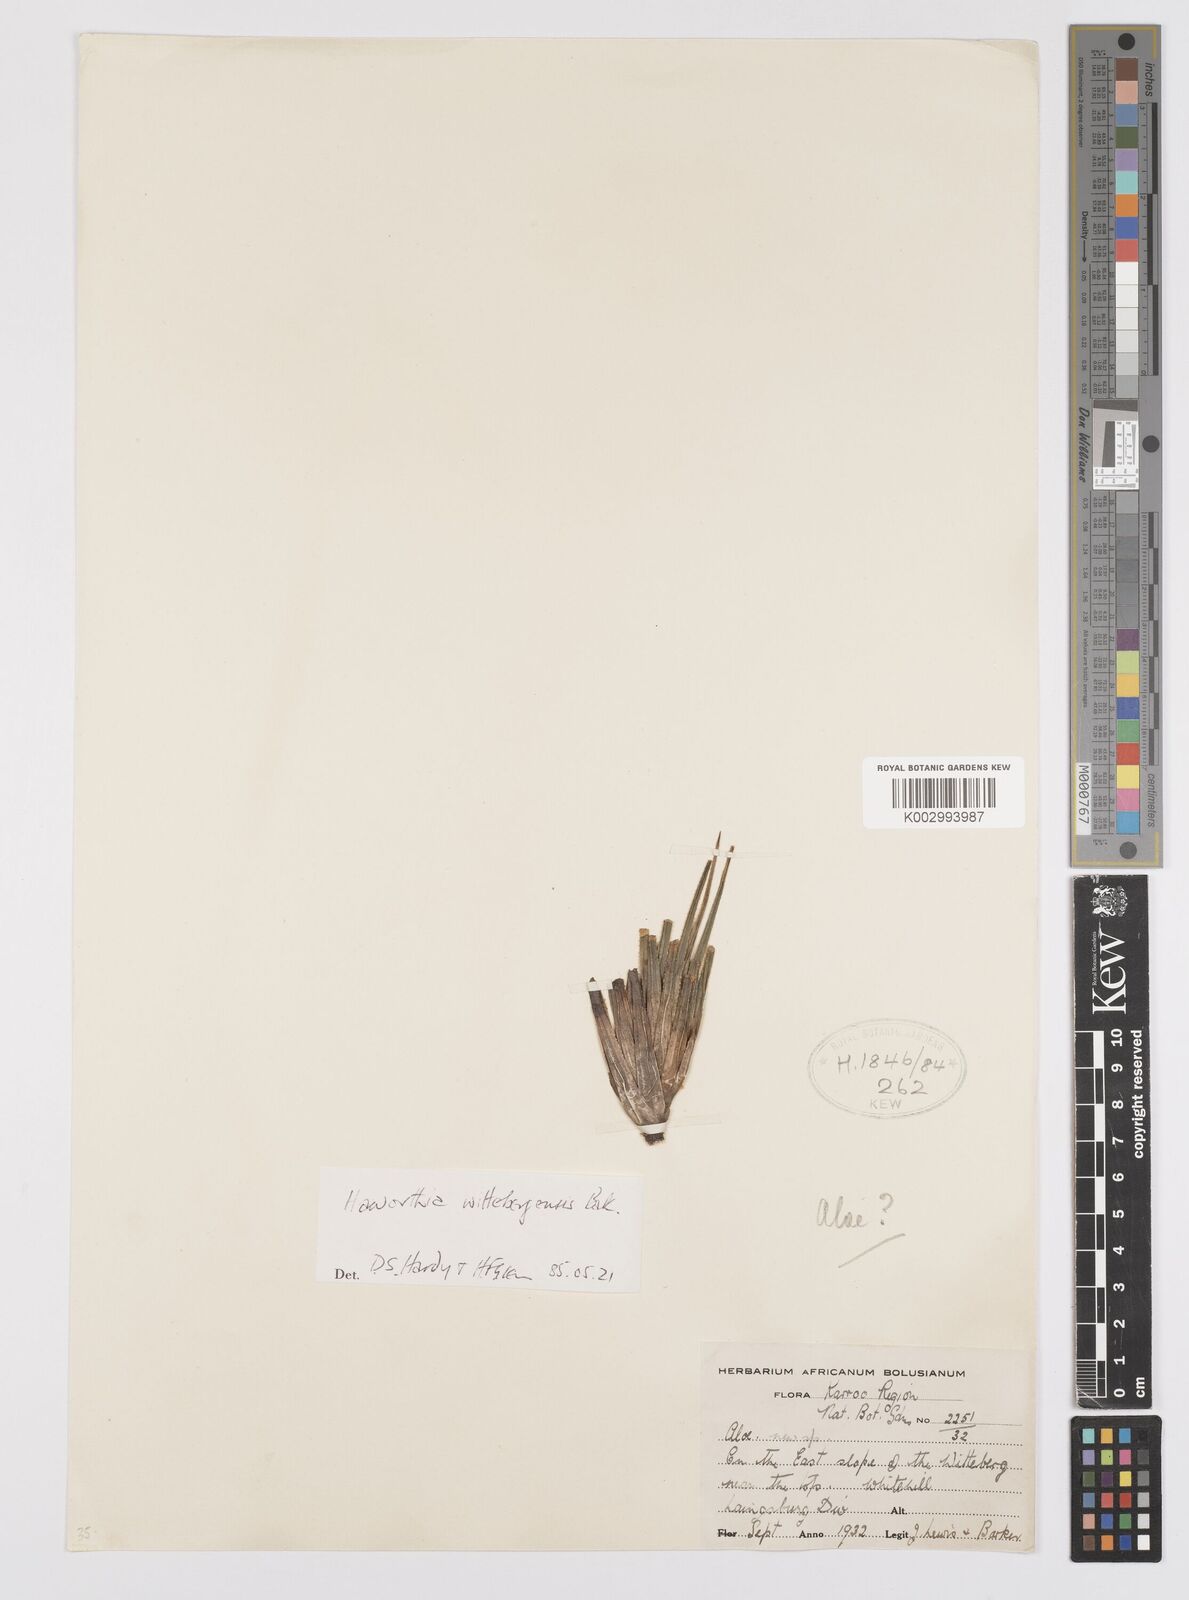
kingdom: Plantae
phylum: Tracheophyta
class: Liliopsida
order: Asparagales
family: Asphodelaceae
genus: Haworthia
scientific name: Haworthia wittebergensis
